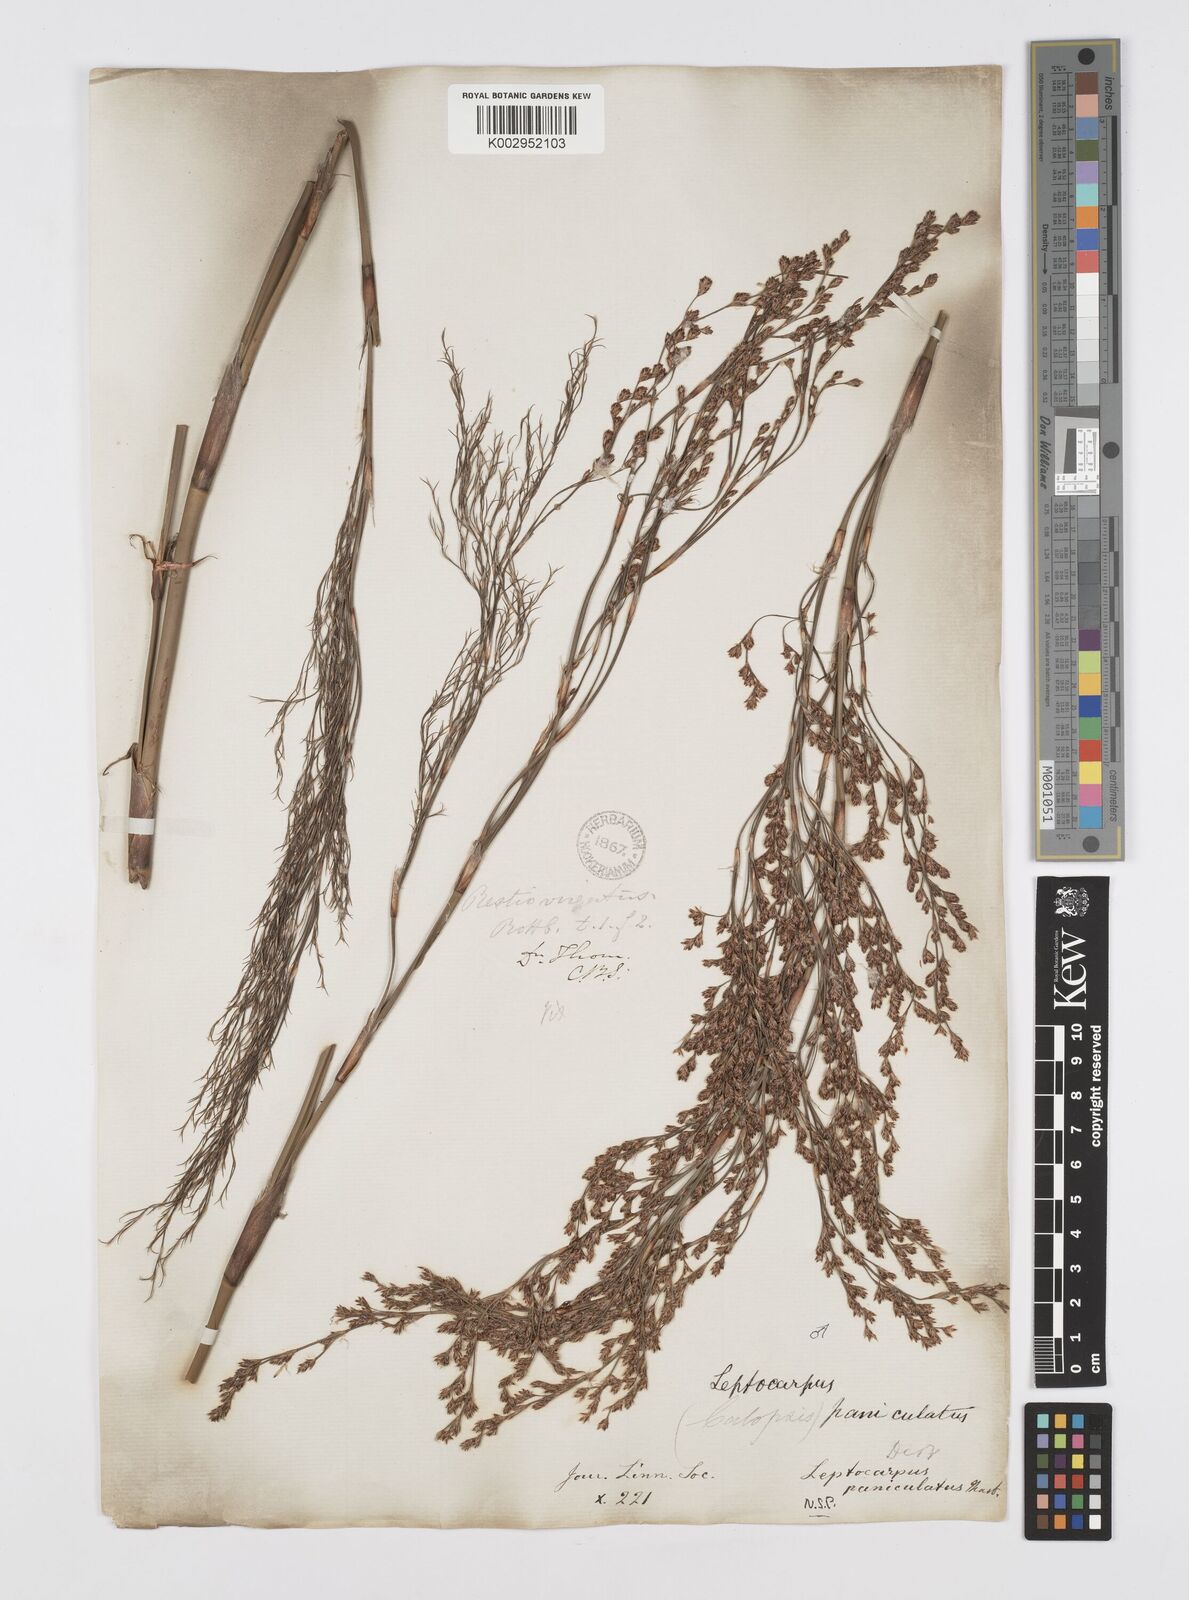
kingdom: Plantae
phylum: Tracheophyta
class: Liliopsida
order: Poales
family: Restionaceae
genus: Restio
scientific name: Restio paniculatus
